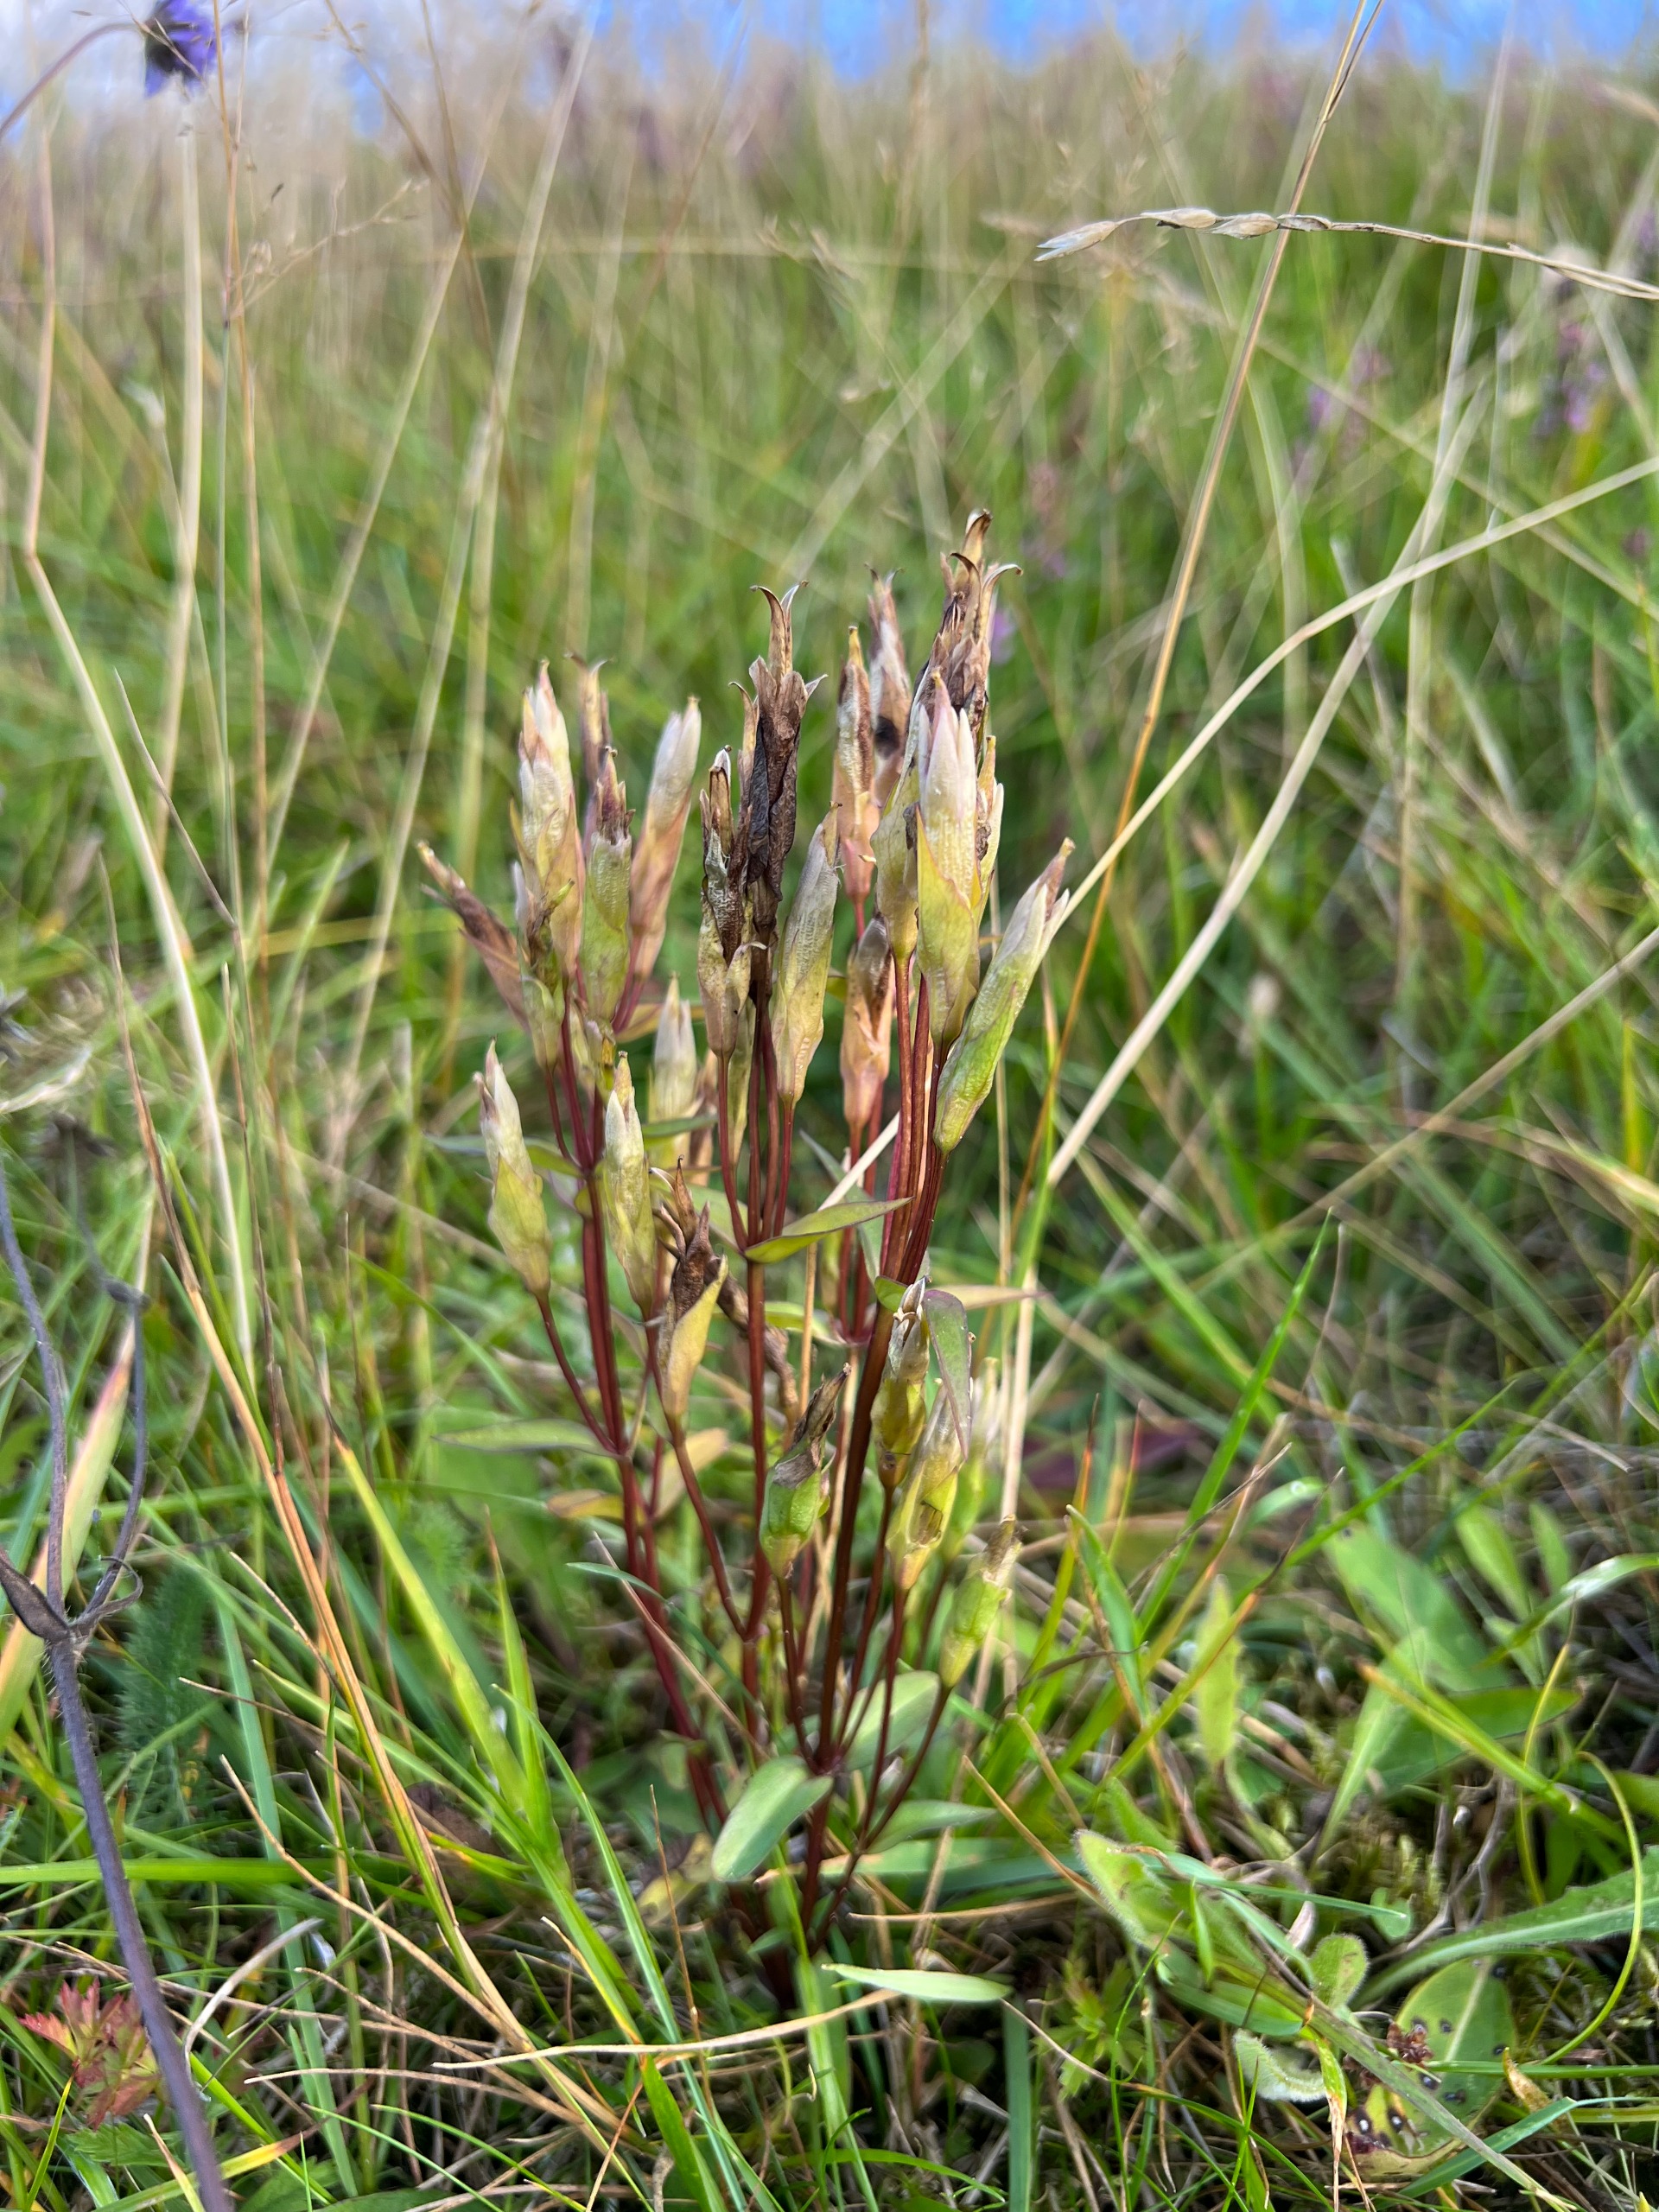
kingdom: Plantae
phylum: Tracheophyta
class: Magnoliopsida
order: Gentianales
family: Gentianaceae
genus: Gentianella
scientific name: Gentianella campestris
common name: Bredbægret ensian
